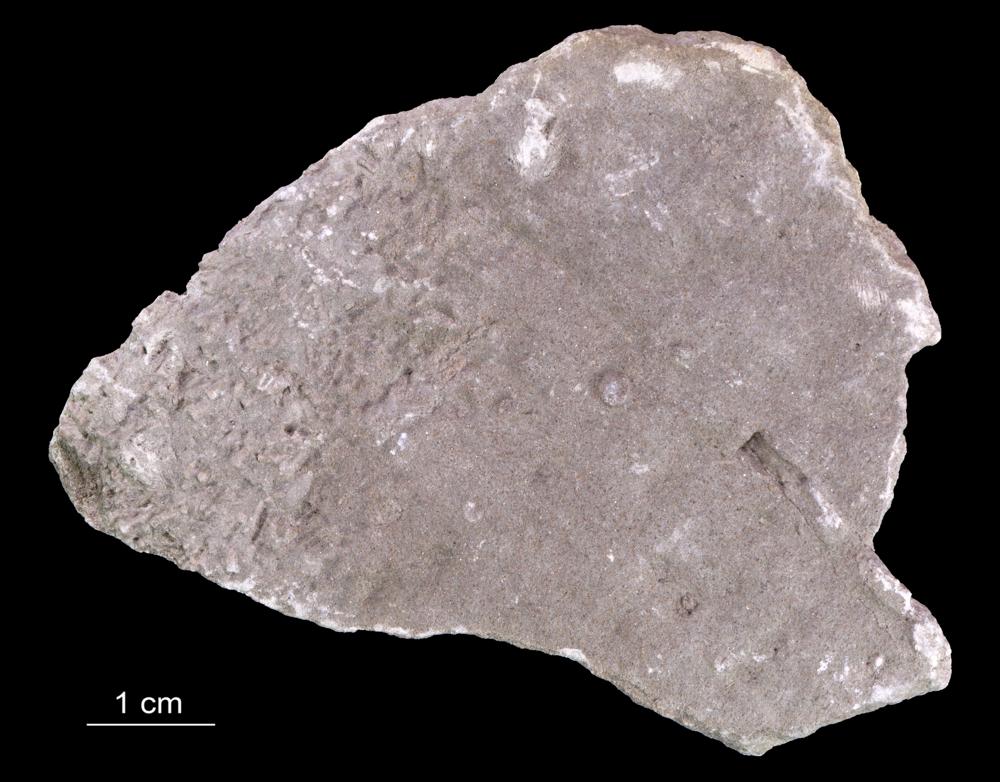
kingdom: Animalia
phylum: Annelida
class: Polychaeta
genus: Volborthella
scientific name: Volborthella tenuis
